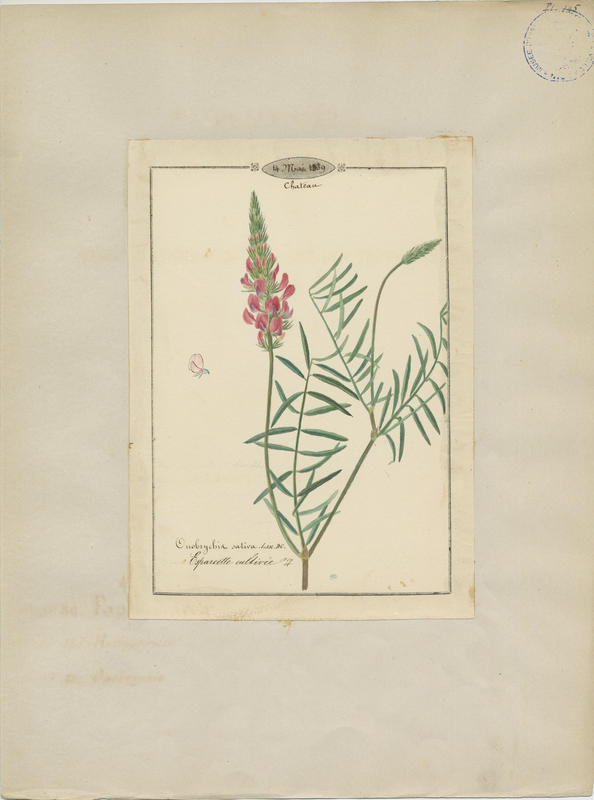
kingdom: Plantae
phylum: Tracheophyta
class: Magnoliopsida
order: Fabales
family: Fabaceae
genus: Onobrychis
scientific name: Onobrychis viciifolia
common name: Sainfoin
